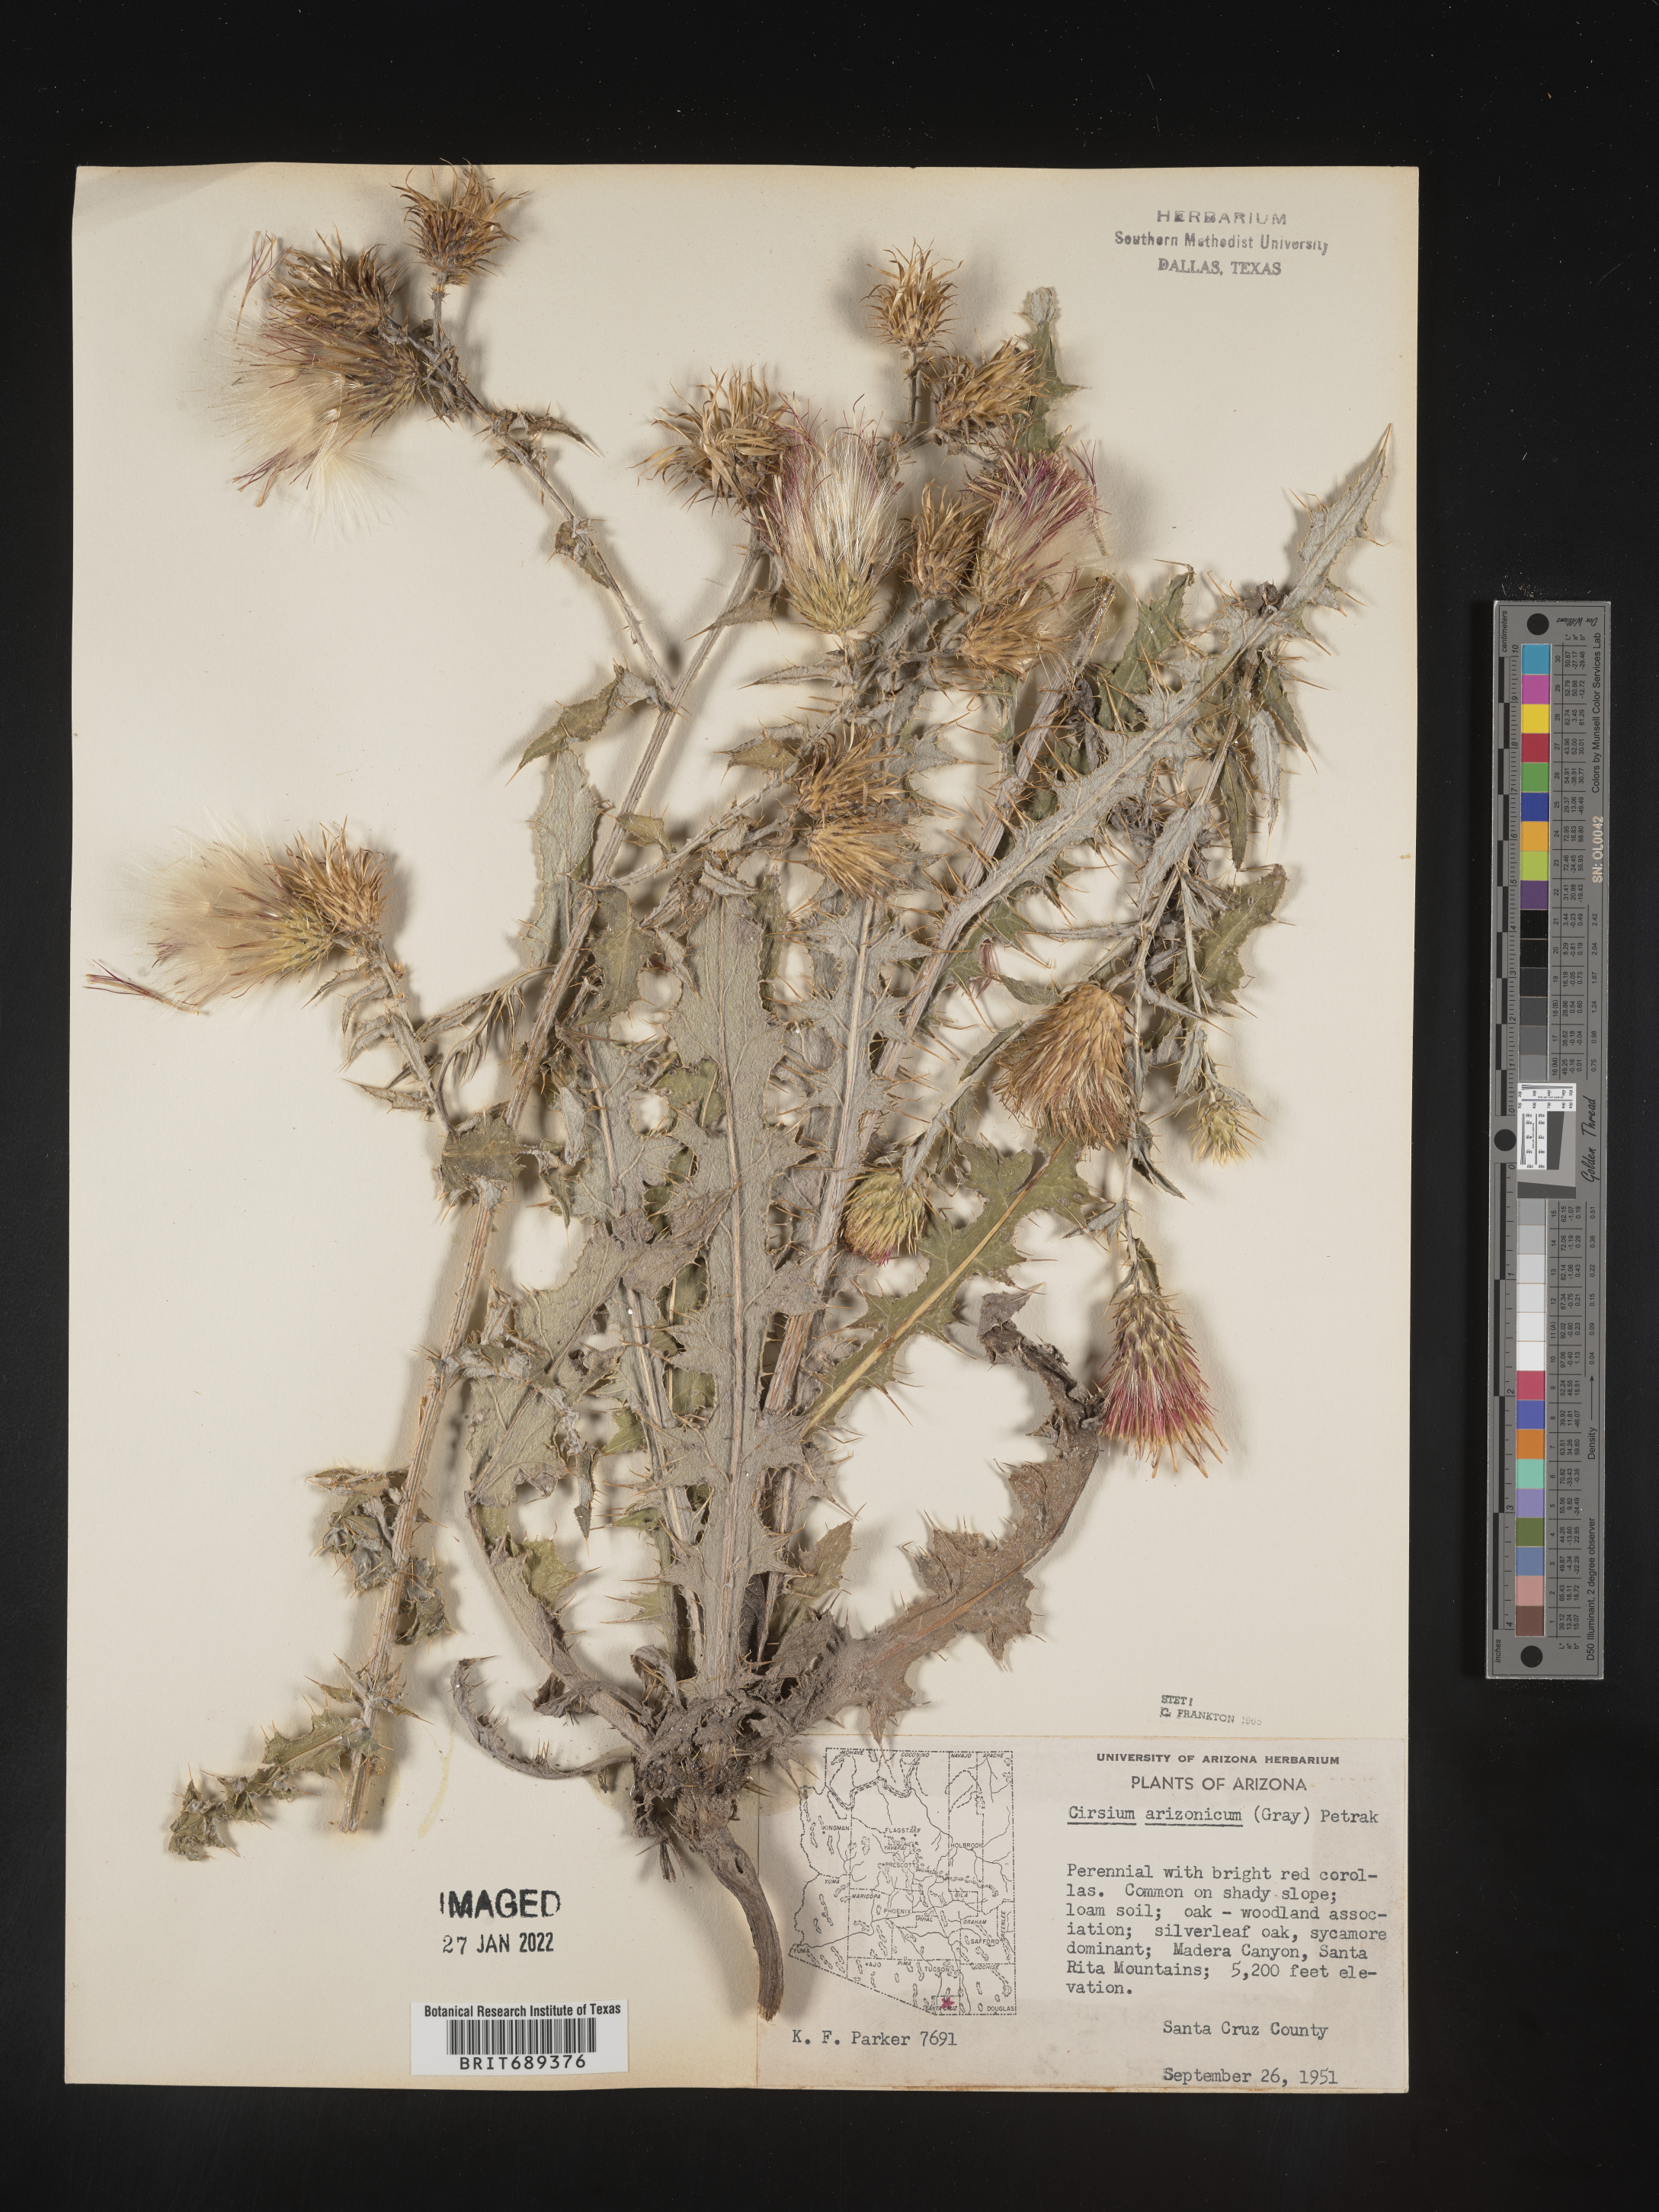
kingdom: Plantae
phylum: Tracheophyta
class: Magnoliopsida
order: Asterales
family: Asteraceae
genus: Cirsium
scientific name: Cirsium arizonicum
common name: Arizona thistle
